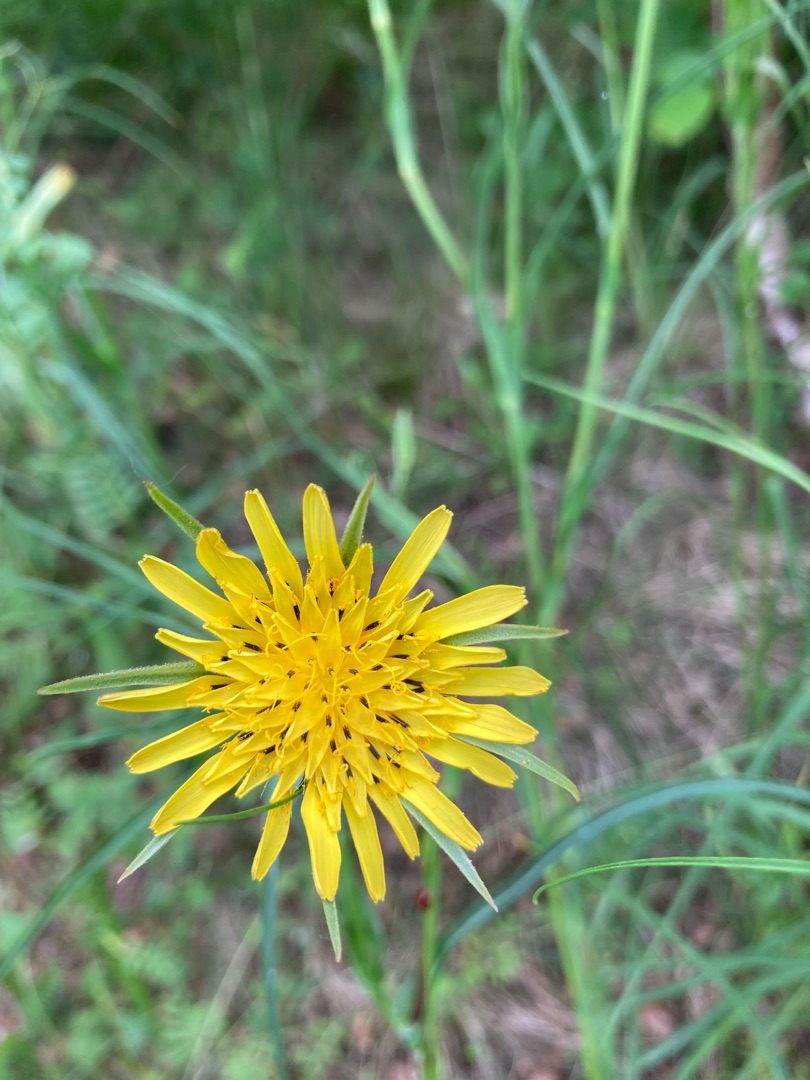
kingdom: Plantae
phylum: Tracheophyta
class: Magnoliopsida
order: Asterales
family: Asteraceae
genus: Tragopogon
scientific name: Tragopogon minor
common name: Småkronet gedeskæg
